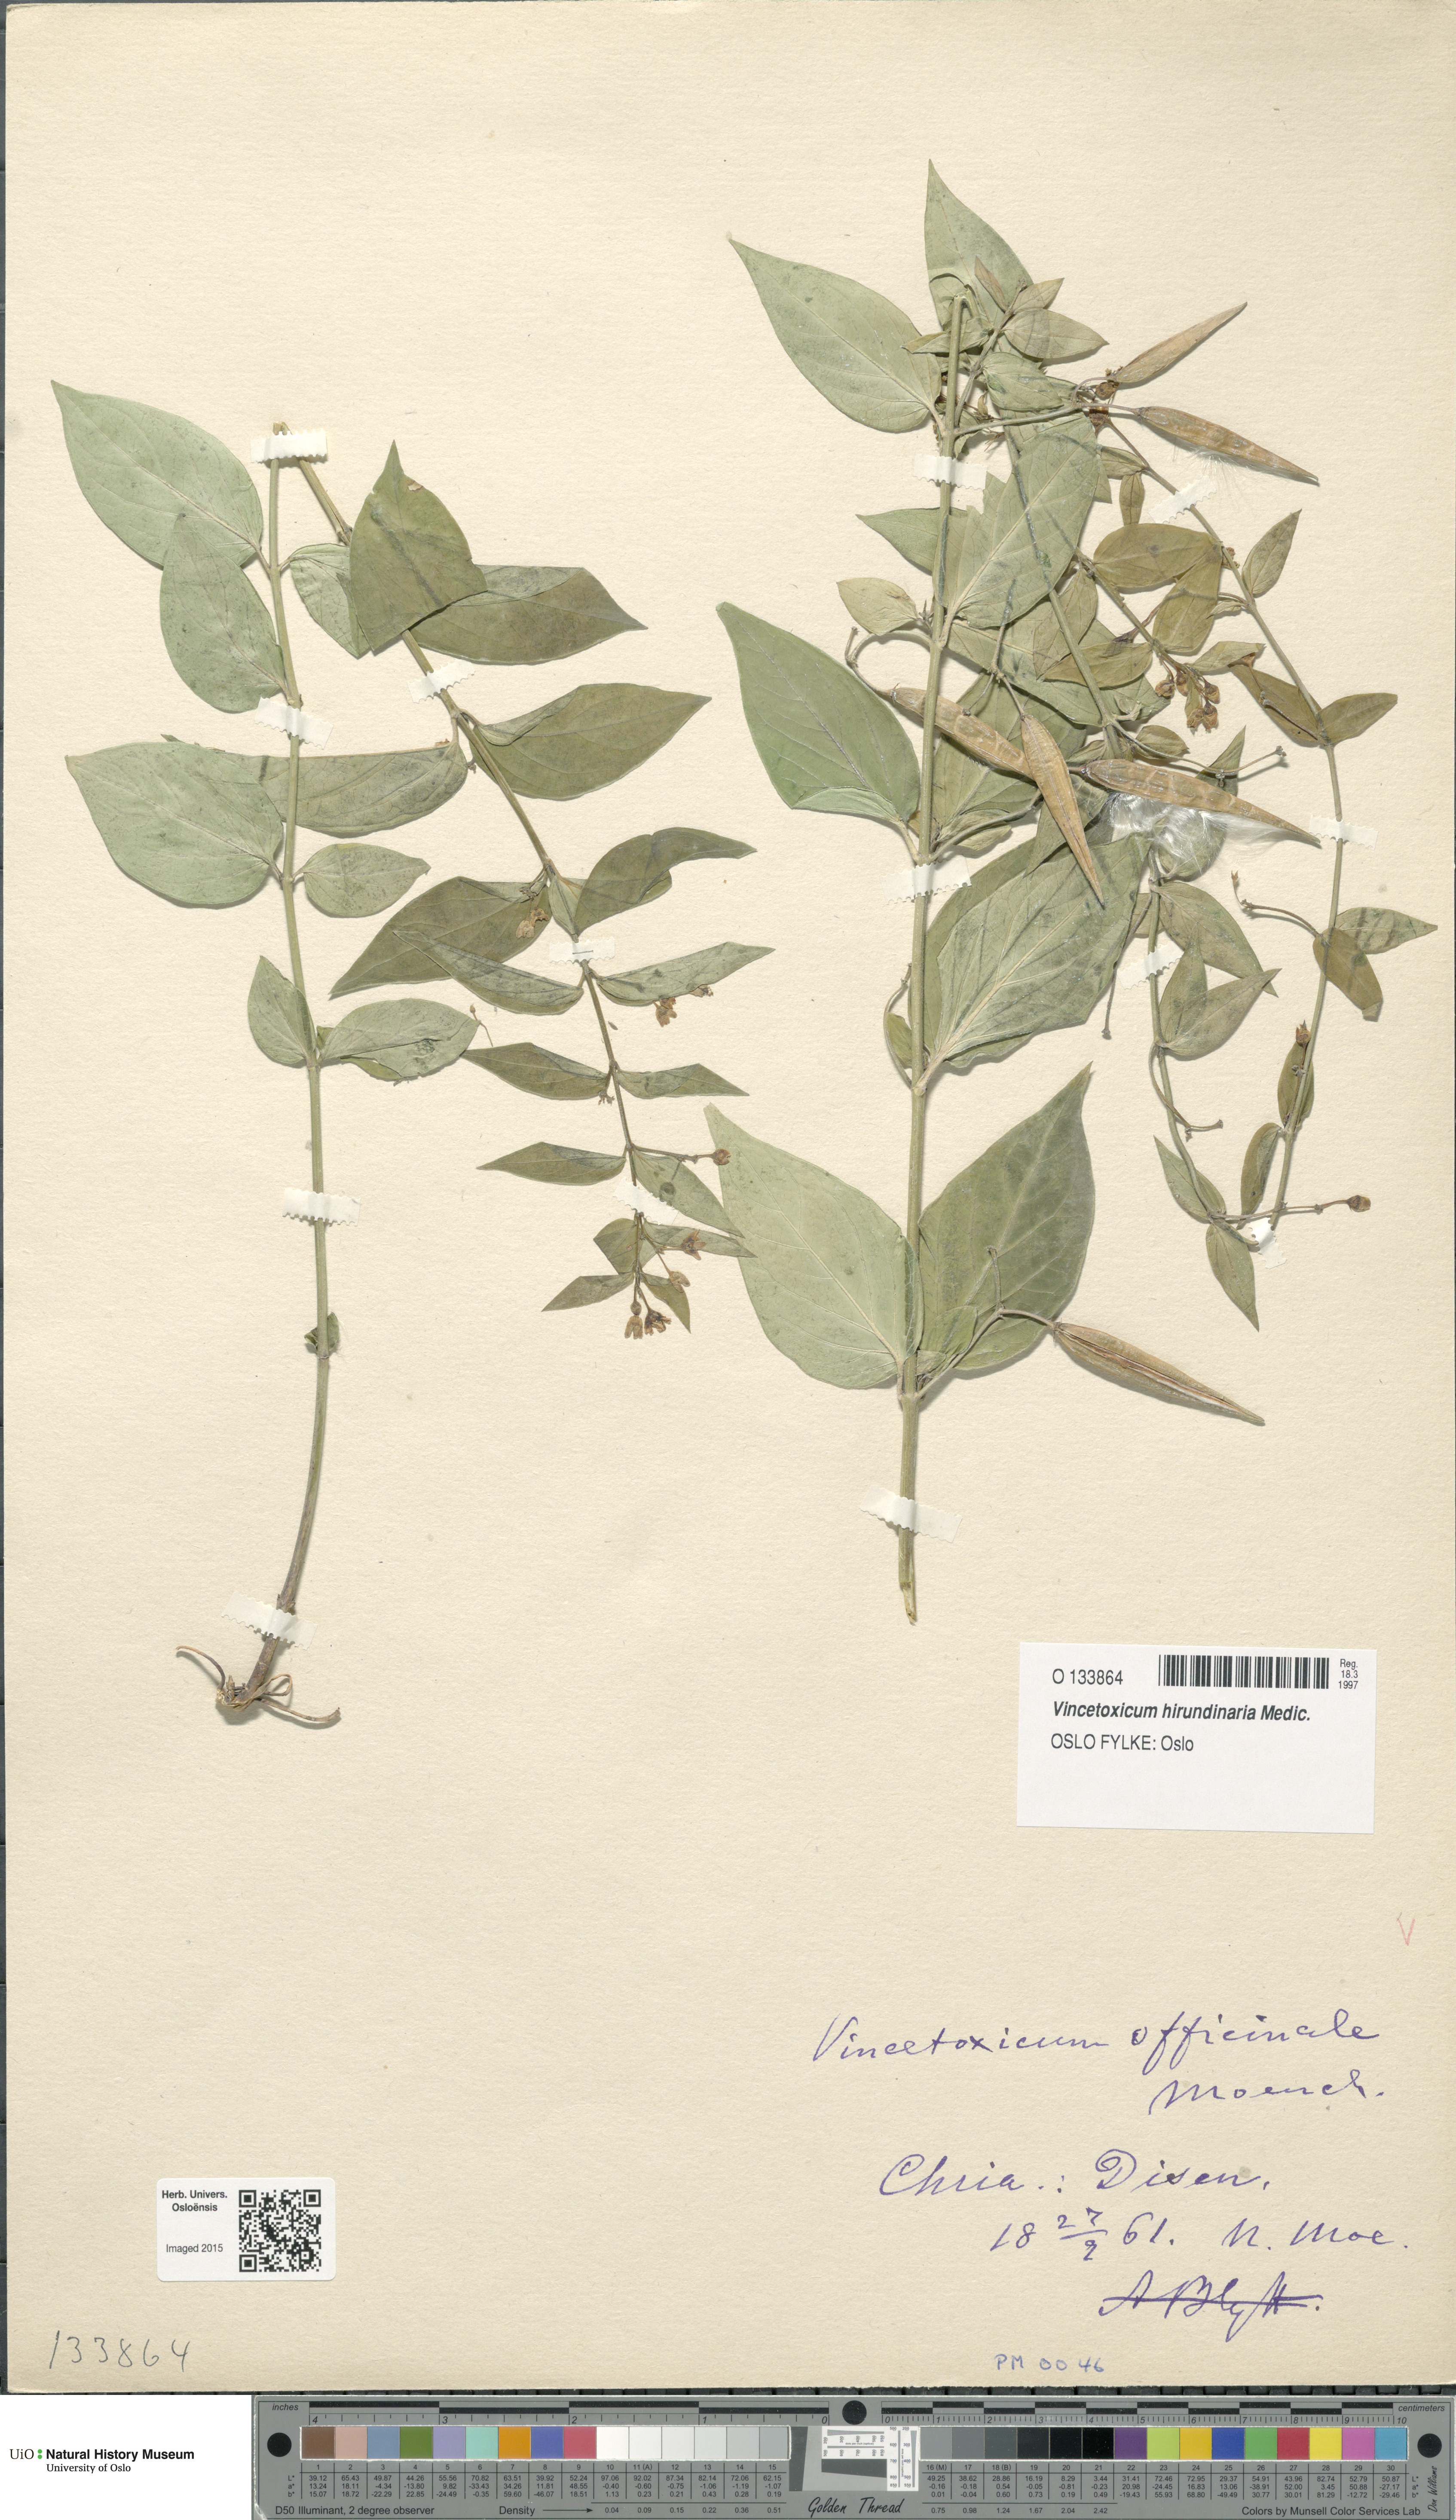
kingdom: Plantae
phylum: Tracheophyta
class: Magnoliopsida
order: Gentianales
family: Apocynaceae
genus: Vincetoxicum
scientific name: Vincetoxicum hirundinaria
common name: White swallowwort
